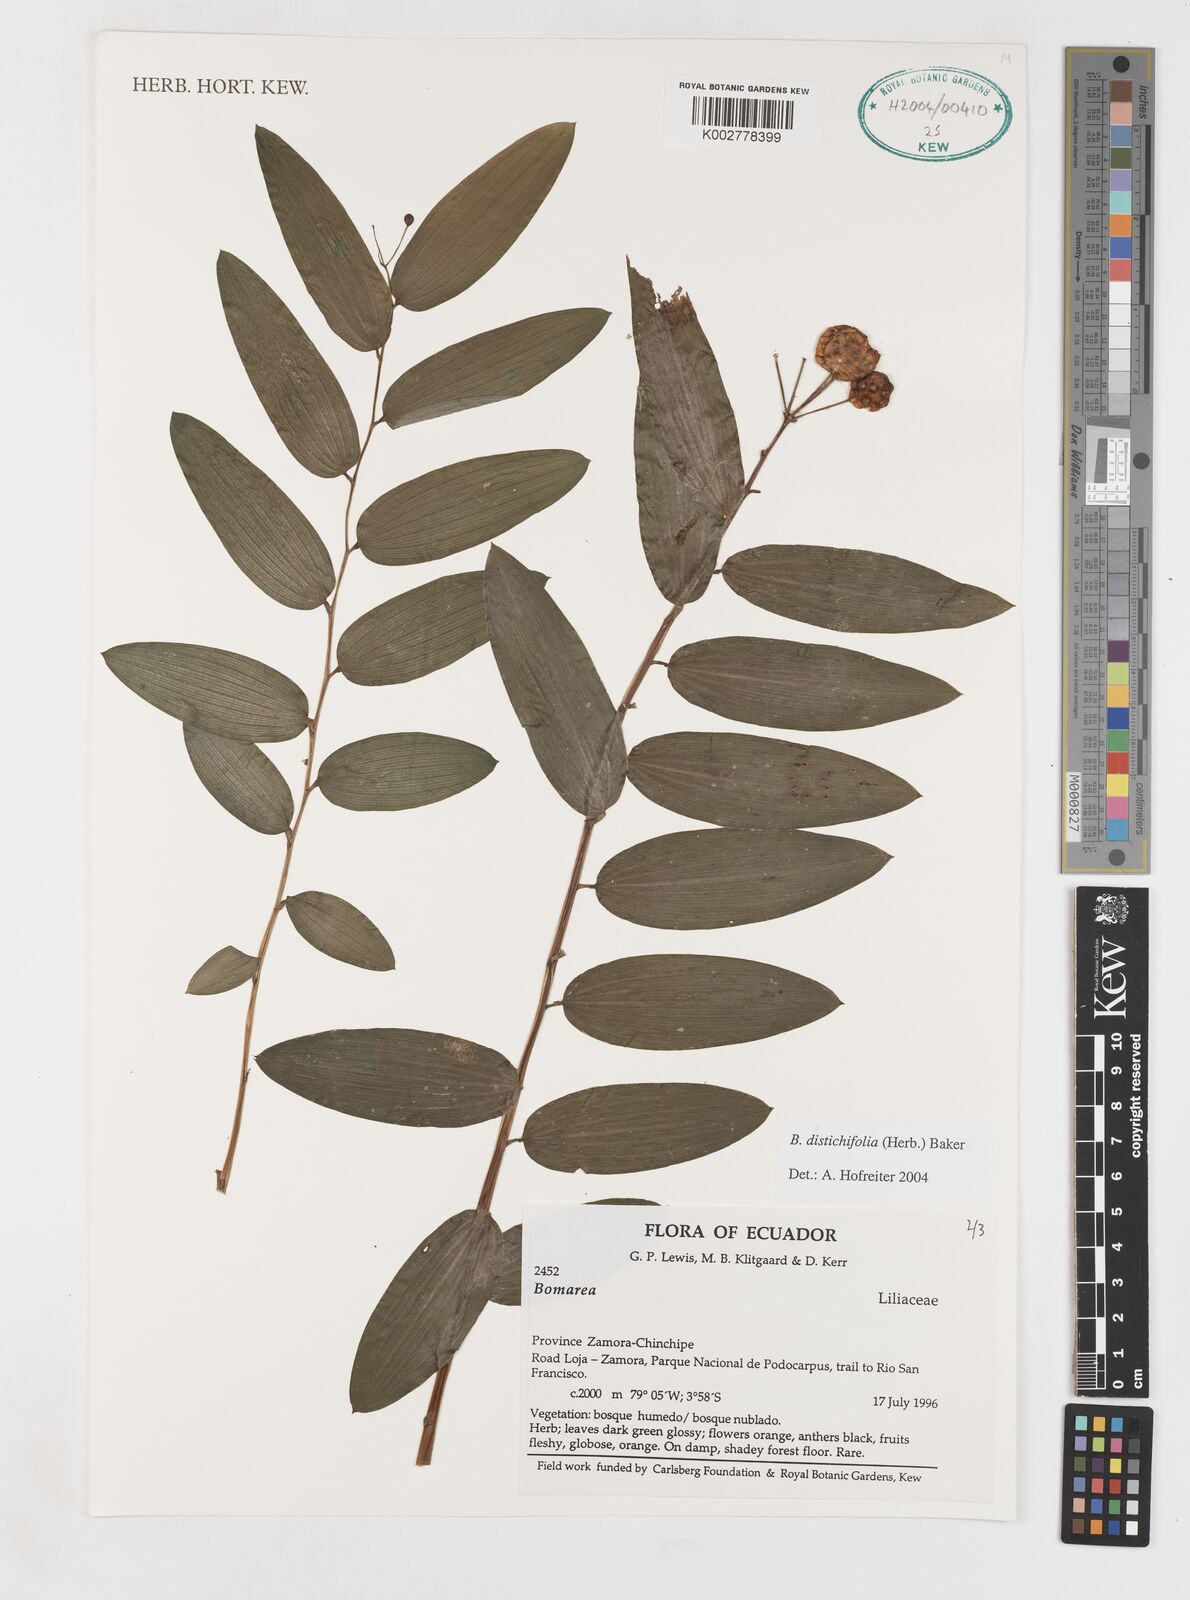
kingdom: Plantae
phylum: Tracheophyta
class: Liliopsida
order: Liliales
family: Alstroemeriaceae
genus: Bomarea
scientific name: Bomarea distichifolia
